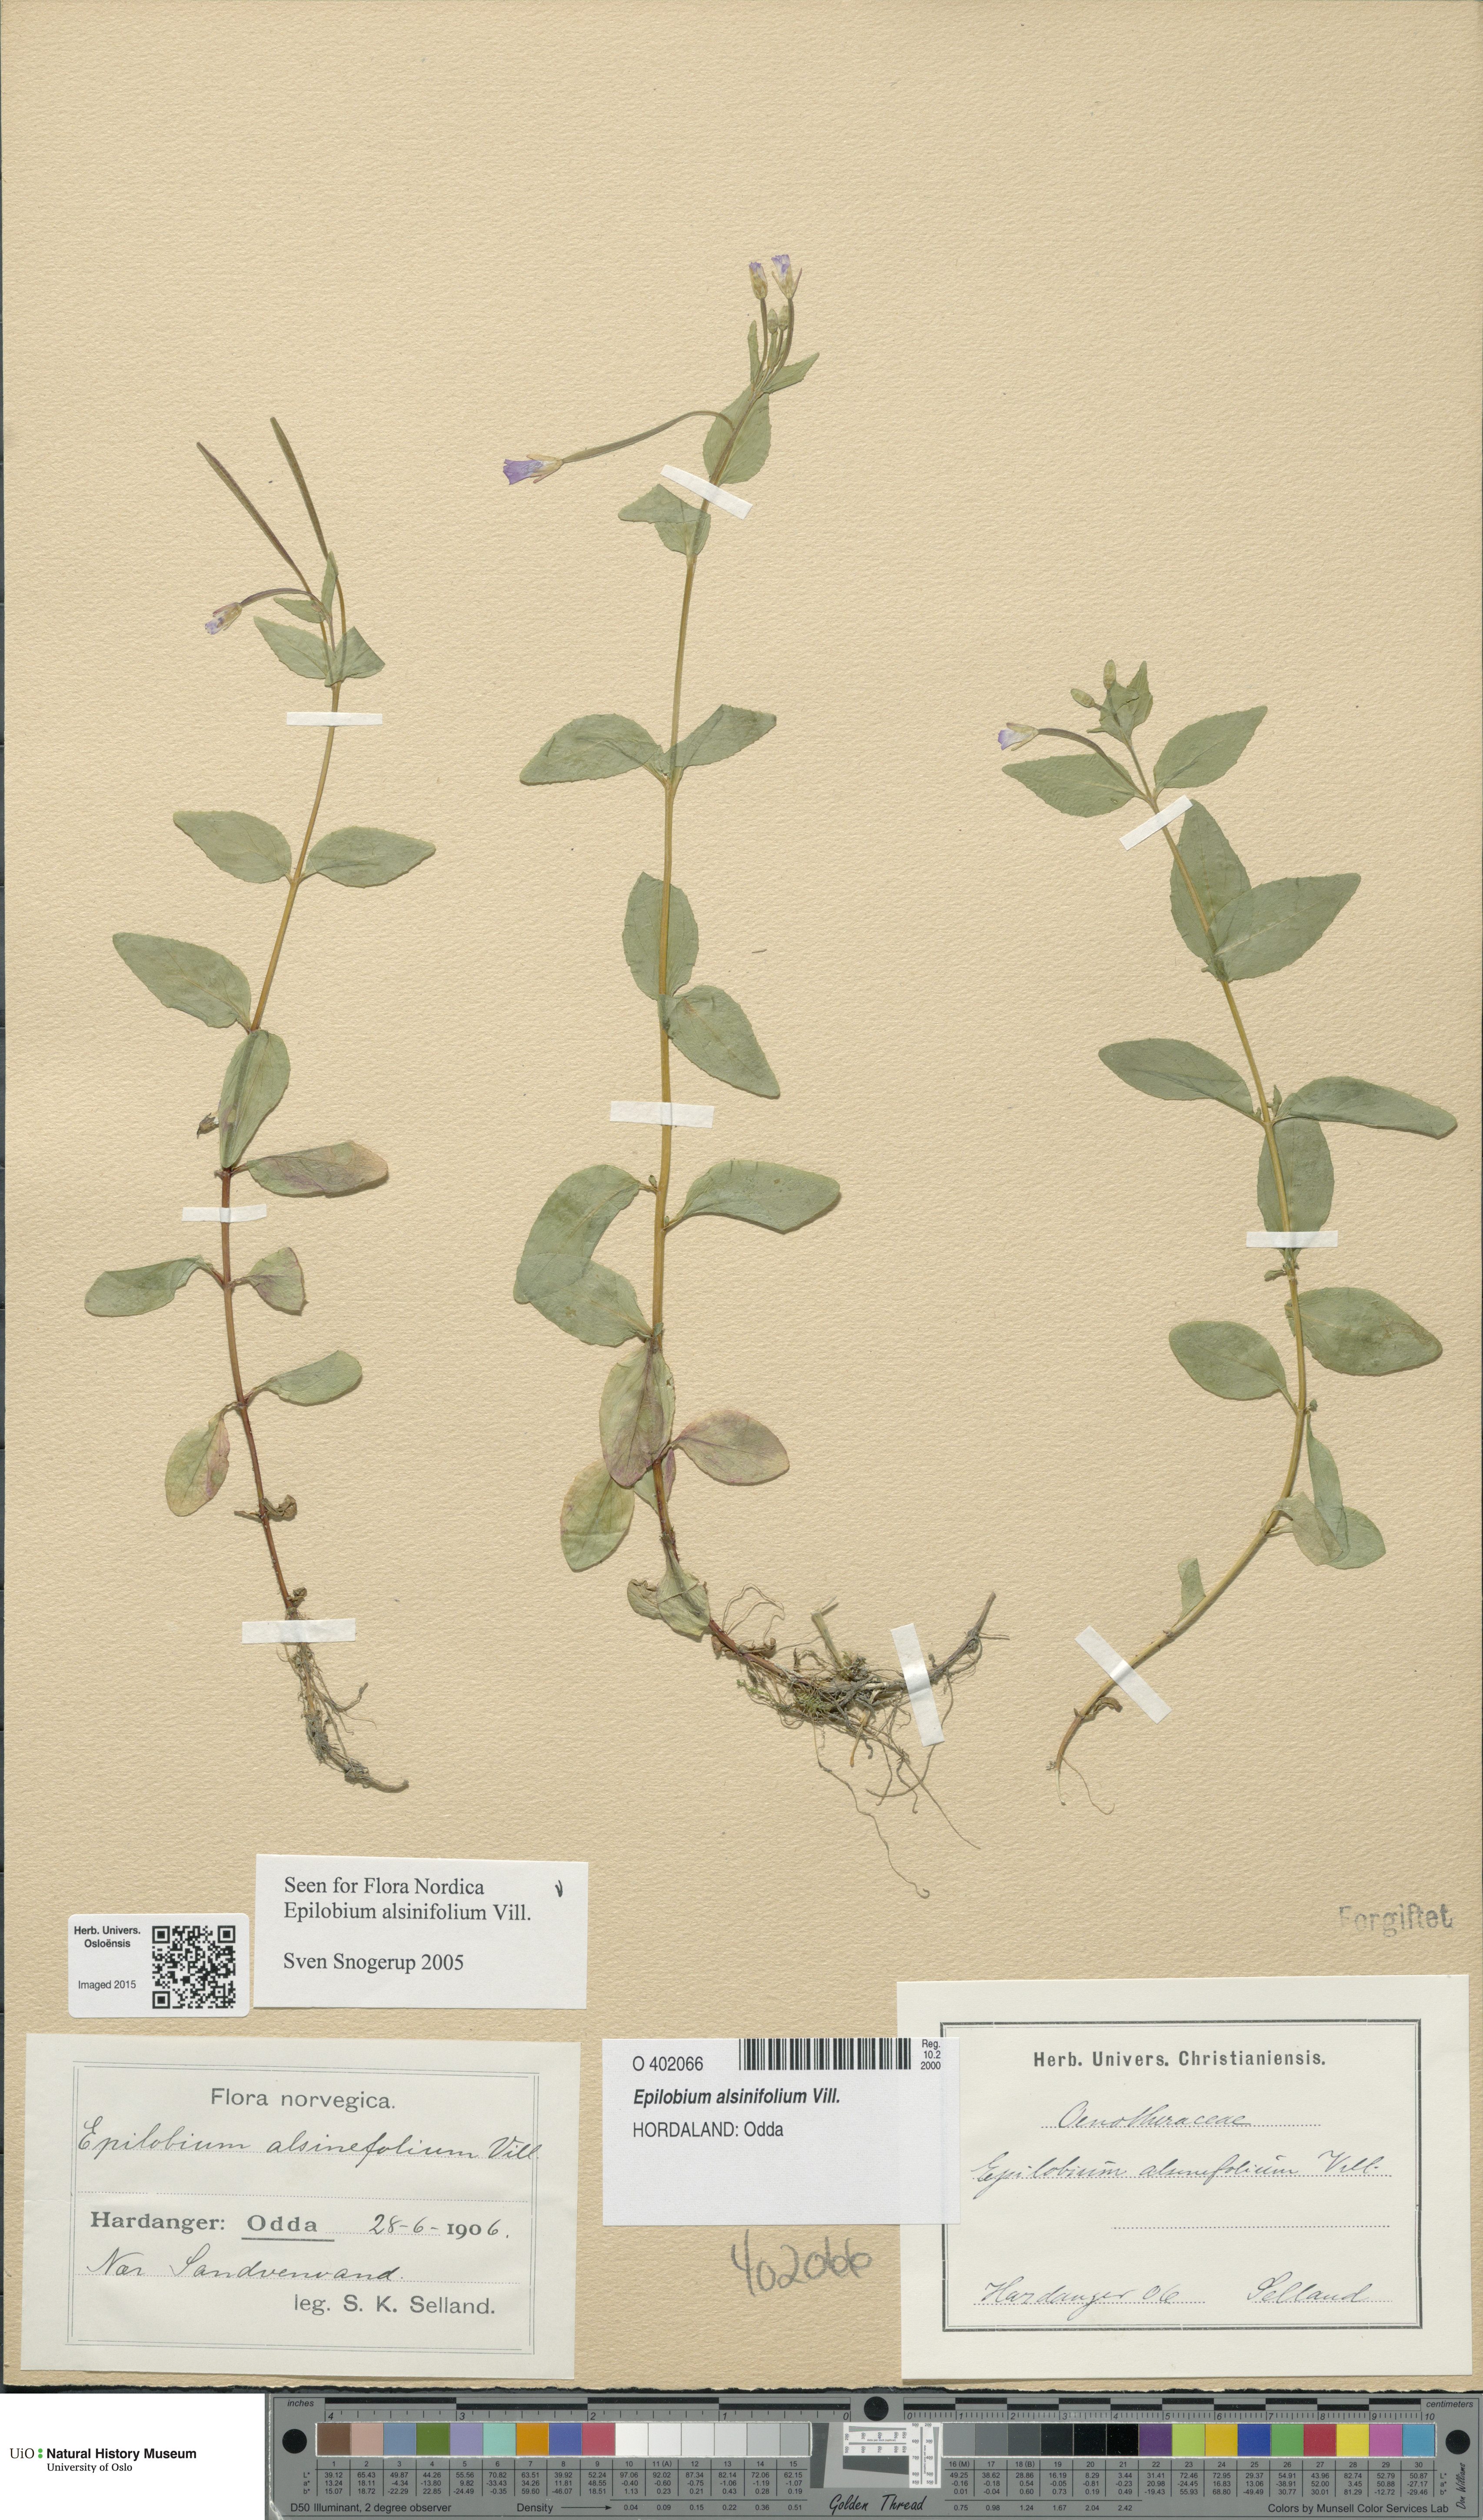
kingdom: Plantae
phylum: Tracheophyta
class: Magnoliopsida
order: Myrtales
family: Onagraceae
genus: Epilobium
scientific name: Epilobium alsinifolium
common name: Chickweed willowherb
